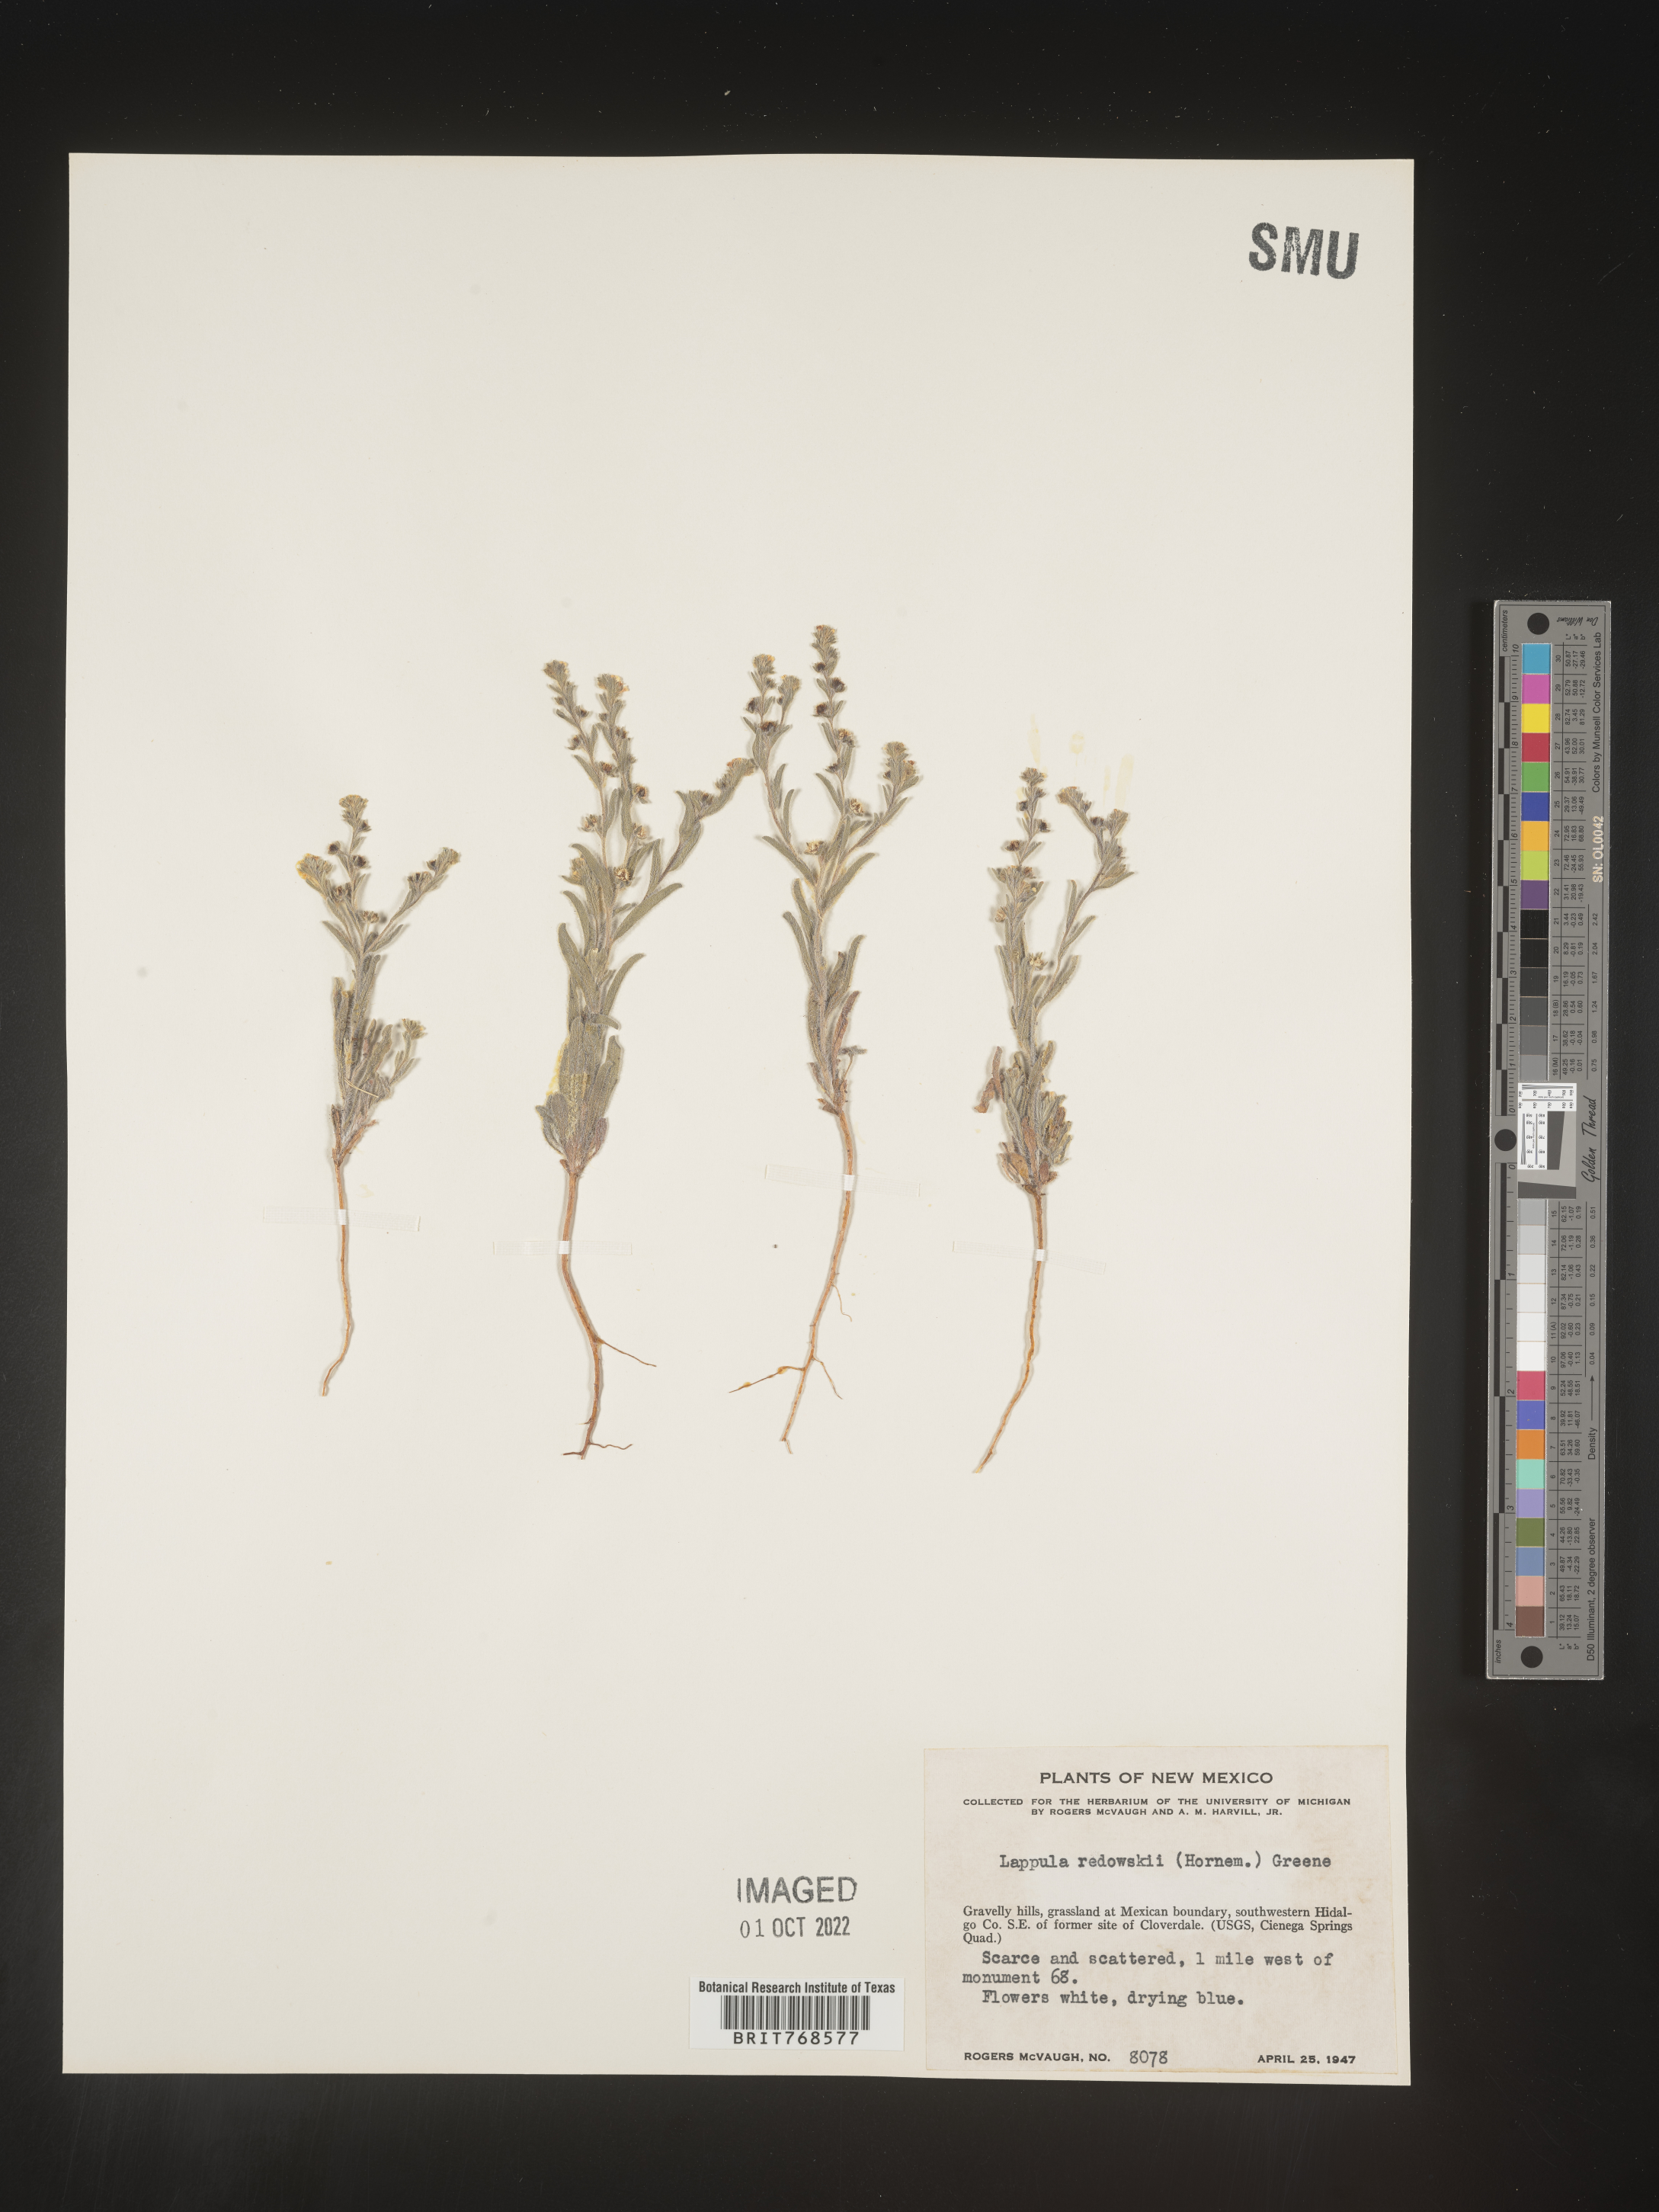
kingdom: Plantae
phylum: Tracheophyta
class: Magnoliopsida
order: Boraginales
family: Boraginaceae
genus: Lappula
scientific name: Lappula redowskii
